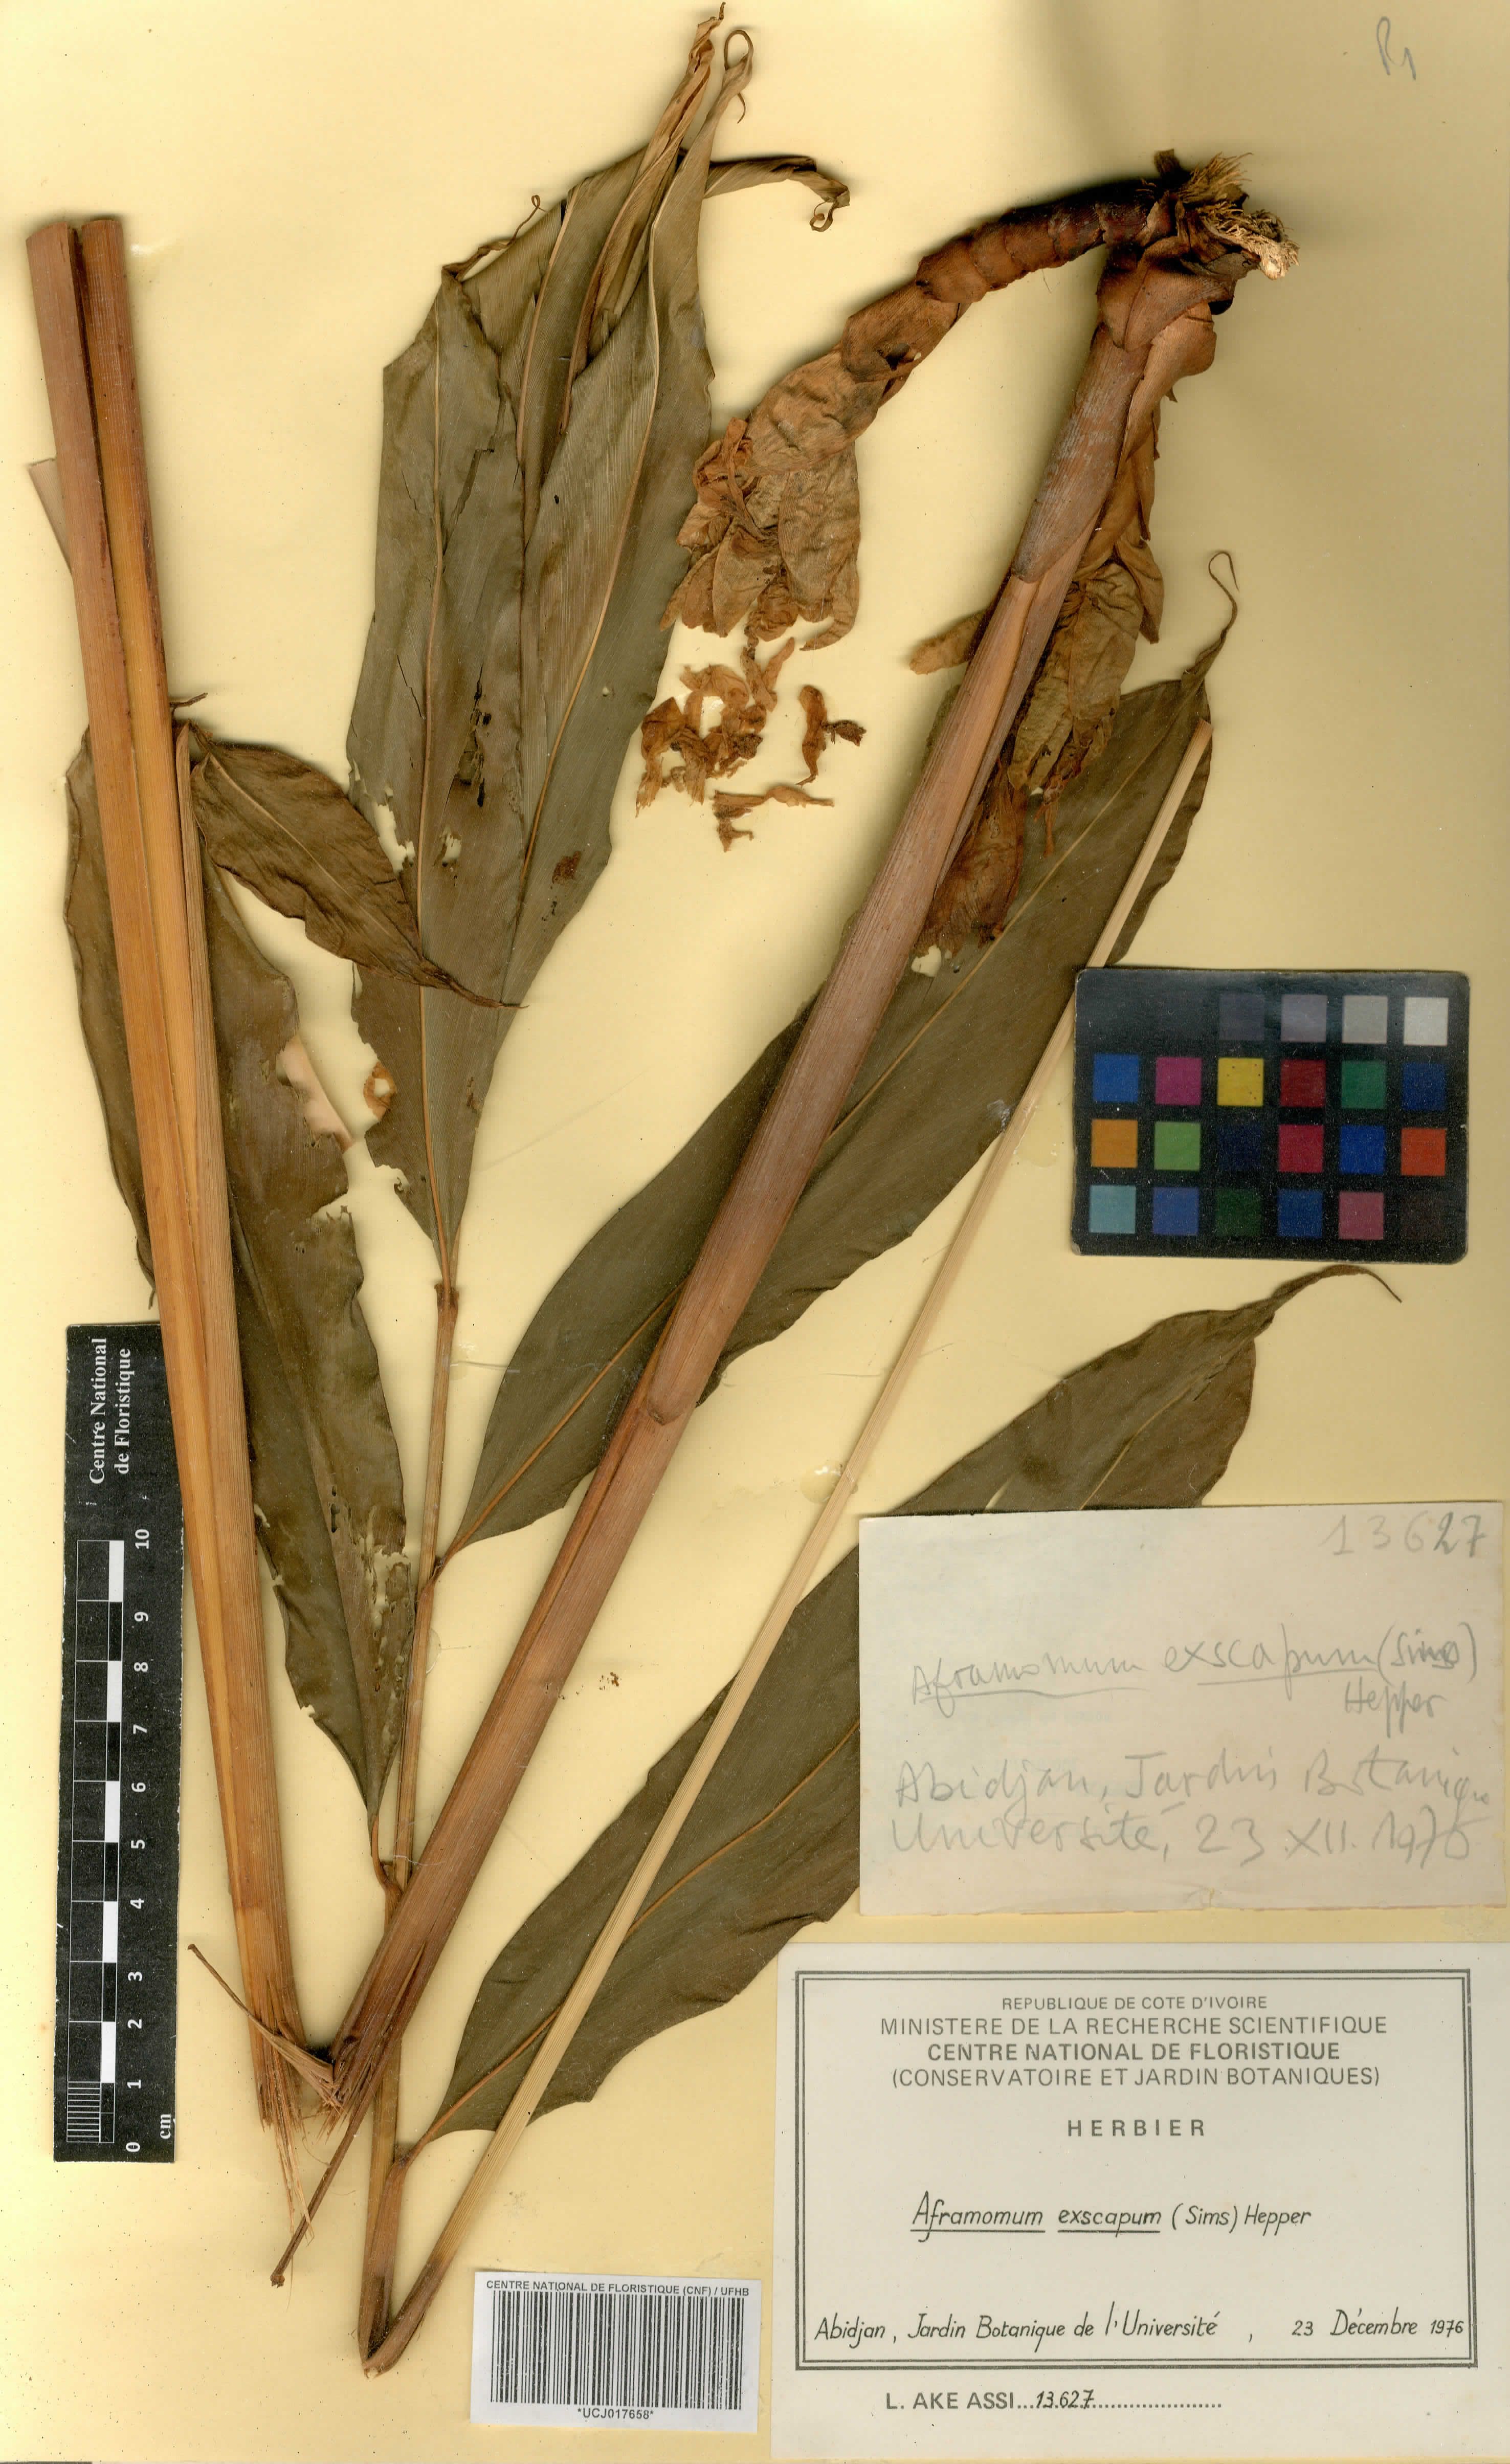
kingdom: Plantae
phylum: Tracheophyta
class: Liliopsida
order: Zingiberales
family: Zingiberaceae
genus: Aframomum
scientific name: Aframomum exscapum
